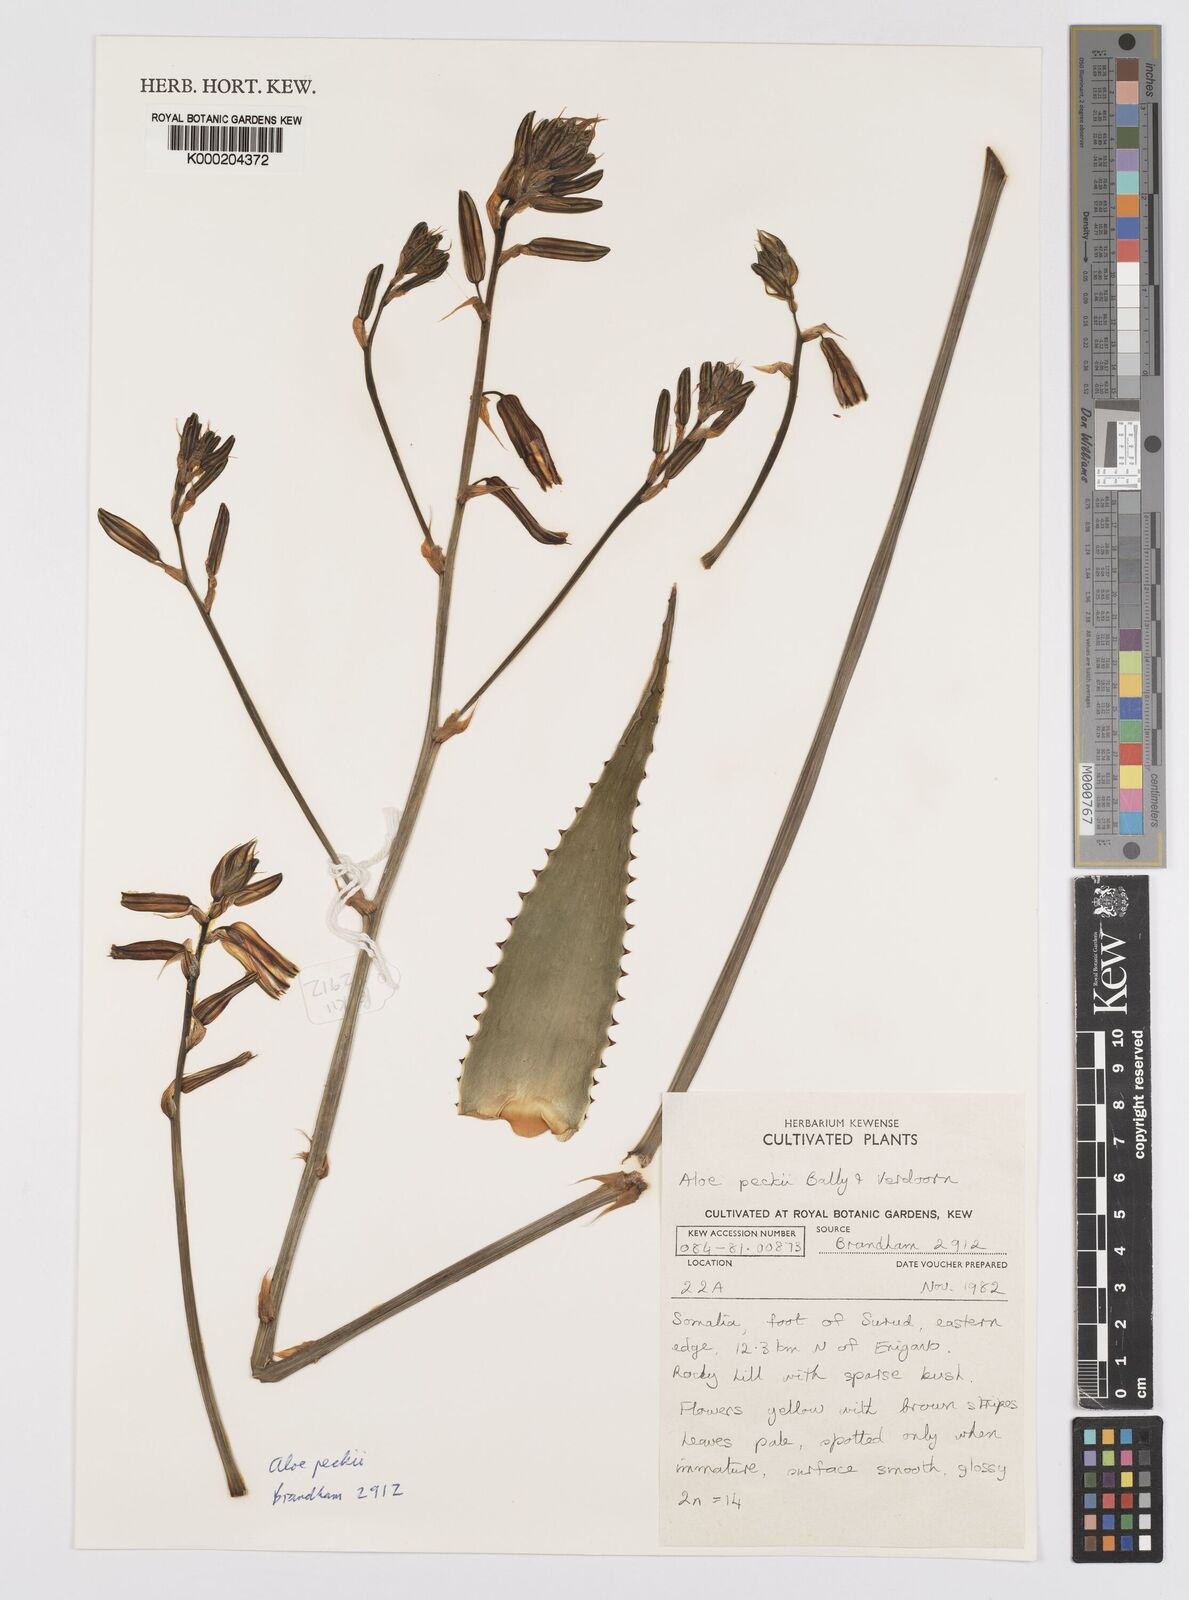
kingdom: Plantae
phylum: Tracheophyta
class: Liliopsida
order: Asparagales
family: Asphodelaceae
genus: Aloe
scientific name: Aloe peckii
